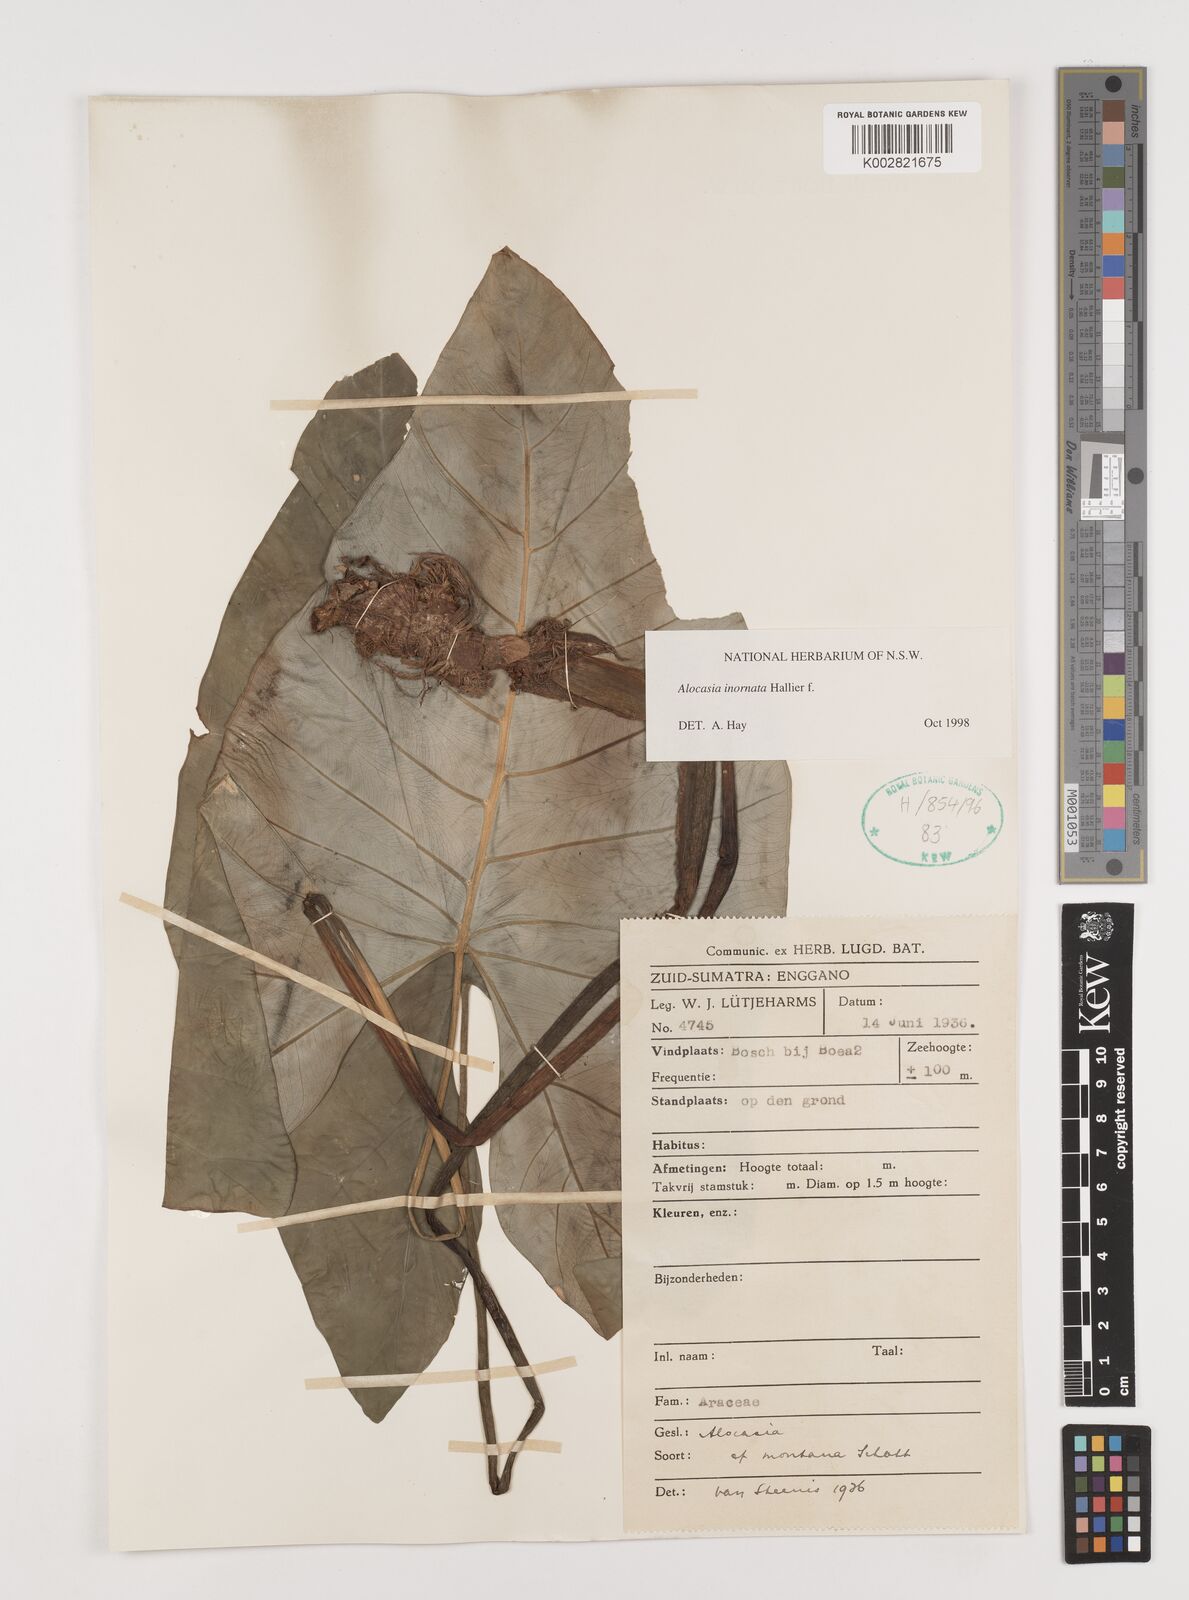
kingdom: Plantae
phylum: Tracheophyta
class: Liliopsida
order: Alismatales
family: Araceae
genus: Alocasia
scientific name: Alocasia inornata
